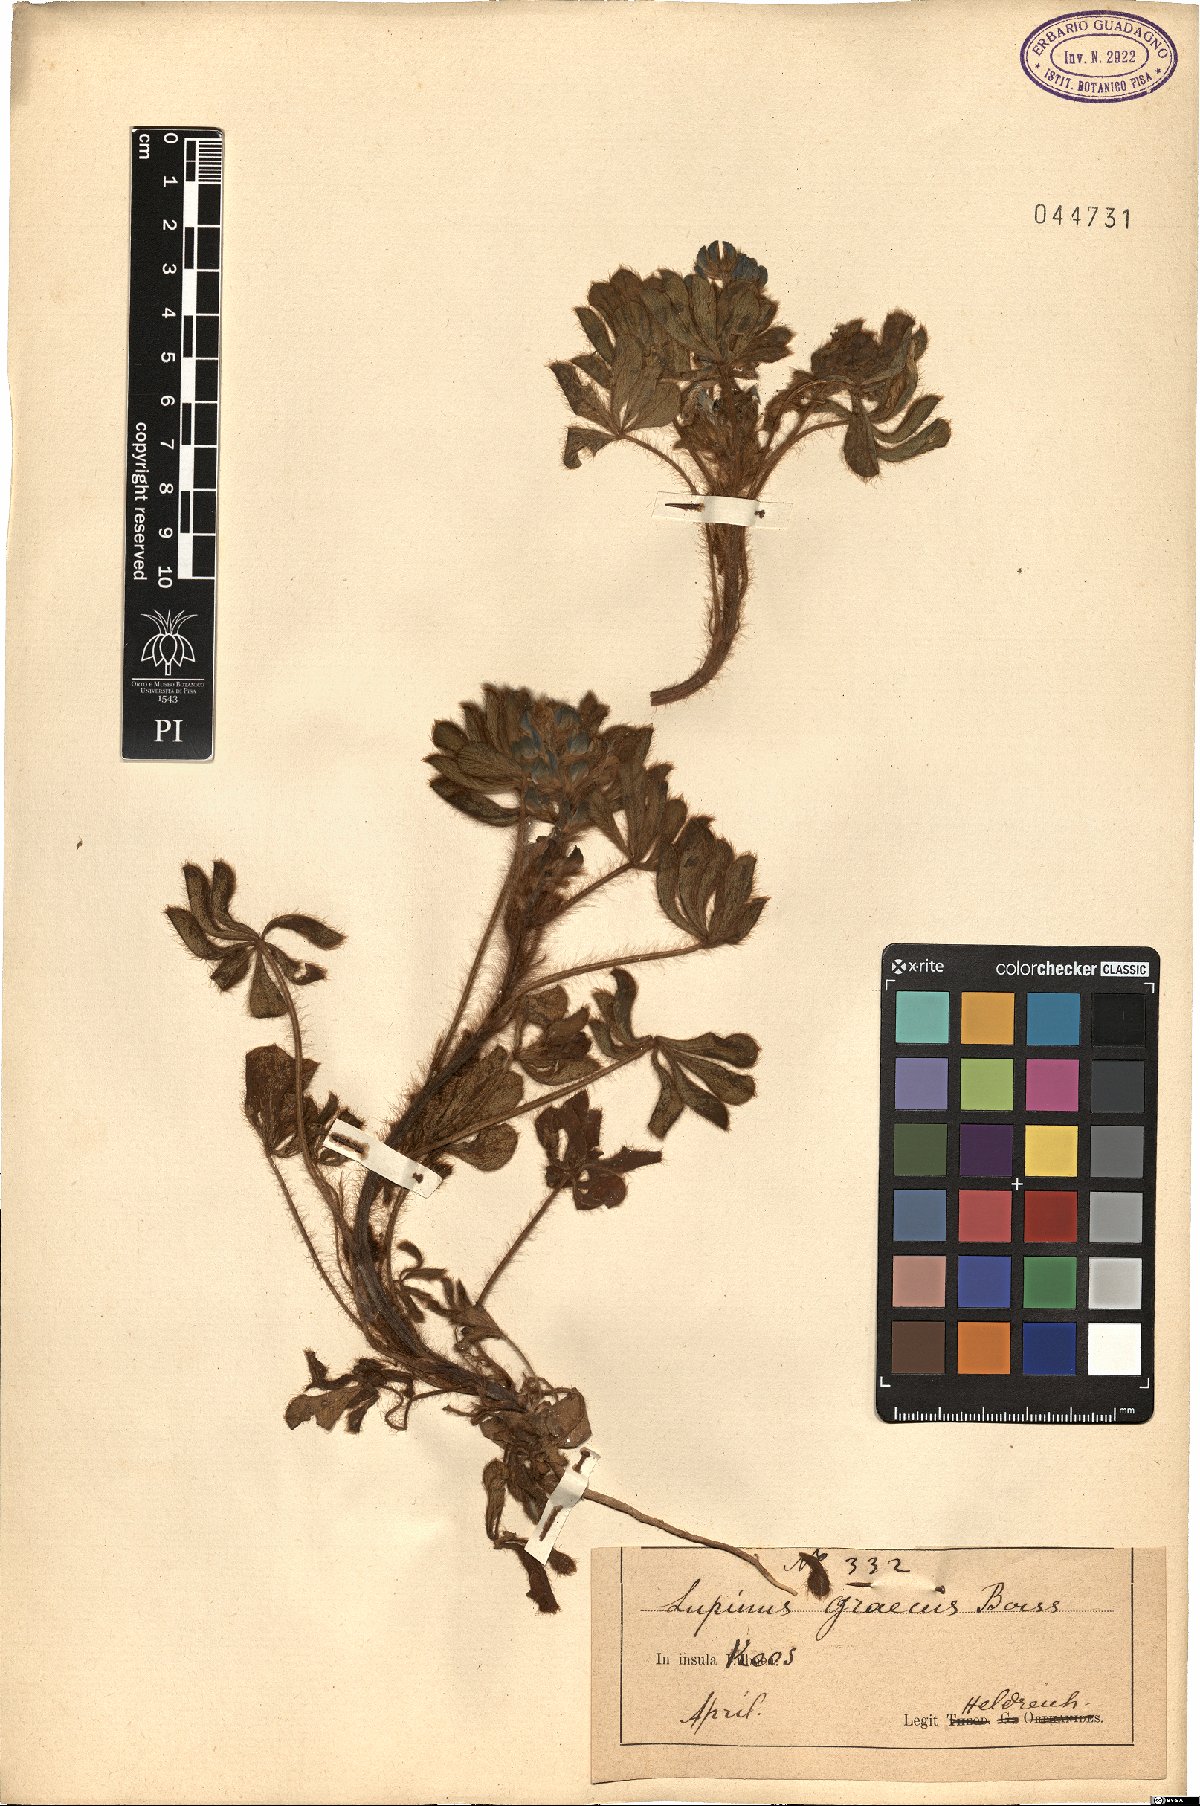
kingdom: Plantae
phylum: Tracheophyta
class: Magnoliopsida
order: Fabales
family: Fabaceae
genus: Lupinus
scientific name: Lupinus albus
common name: White lupin
